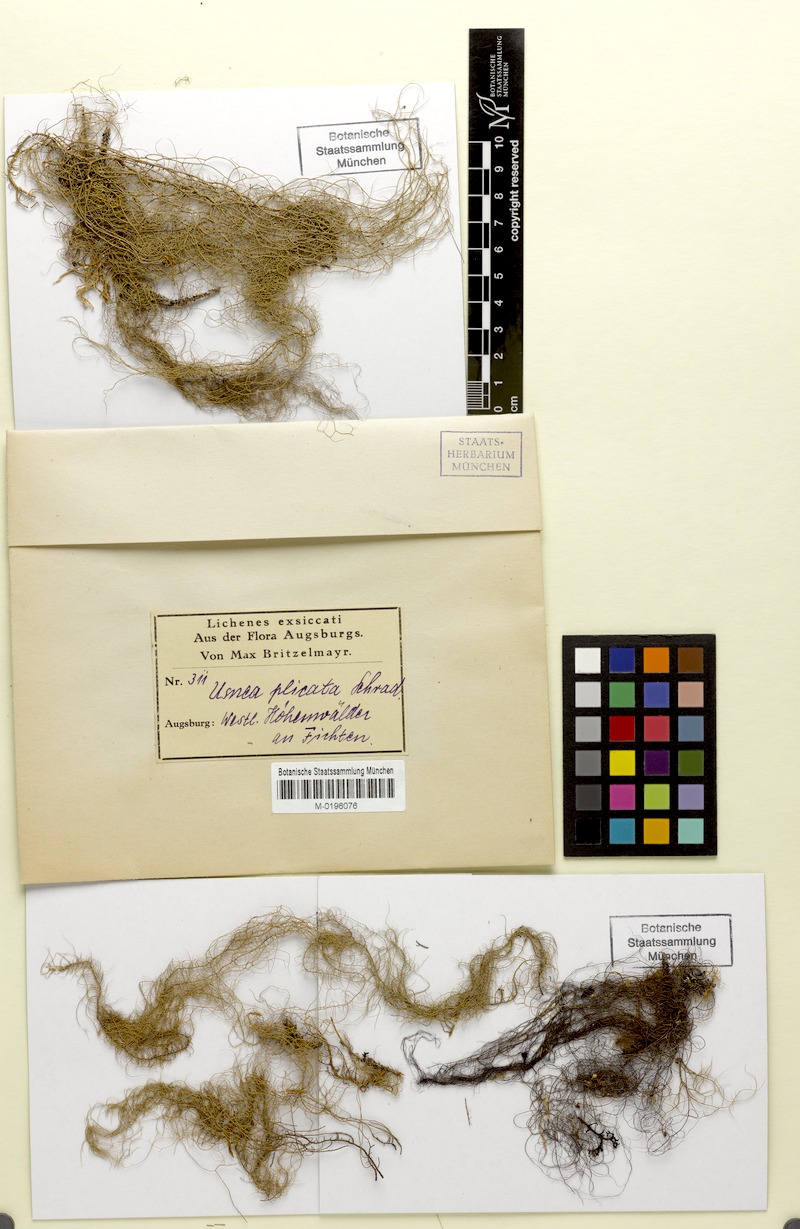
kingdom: Fungi
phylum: Ascomycota
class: Lecanoromycetes
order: Lecanorales
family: Parmeliaceae
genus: Usnea
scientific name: Usnea plicata
